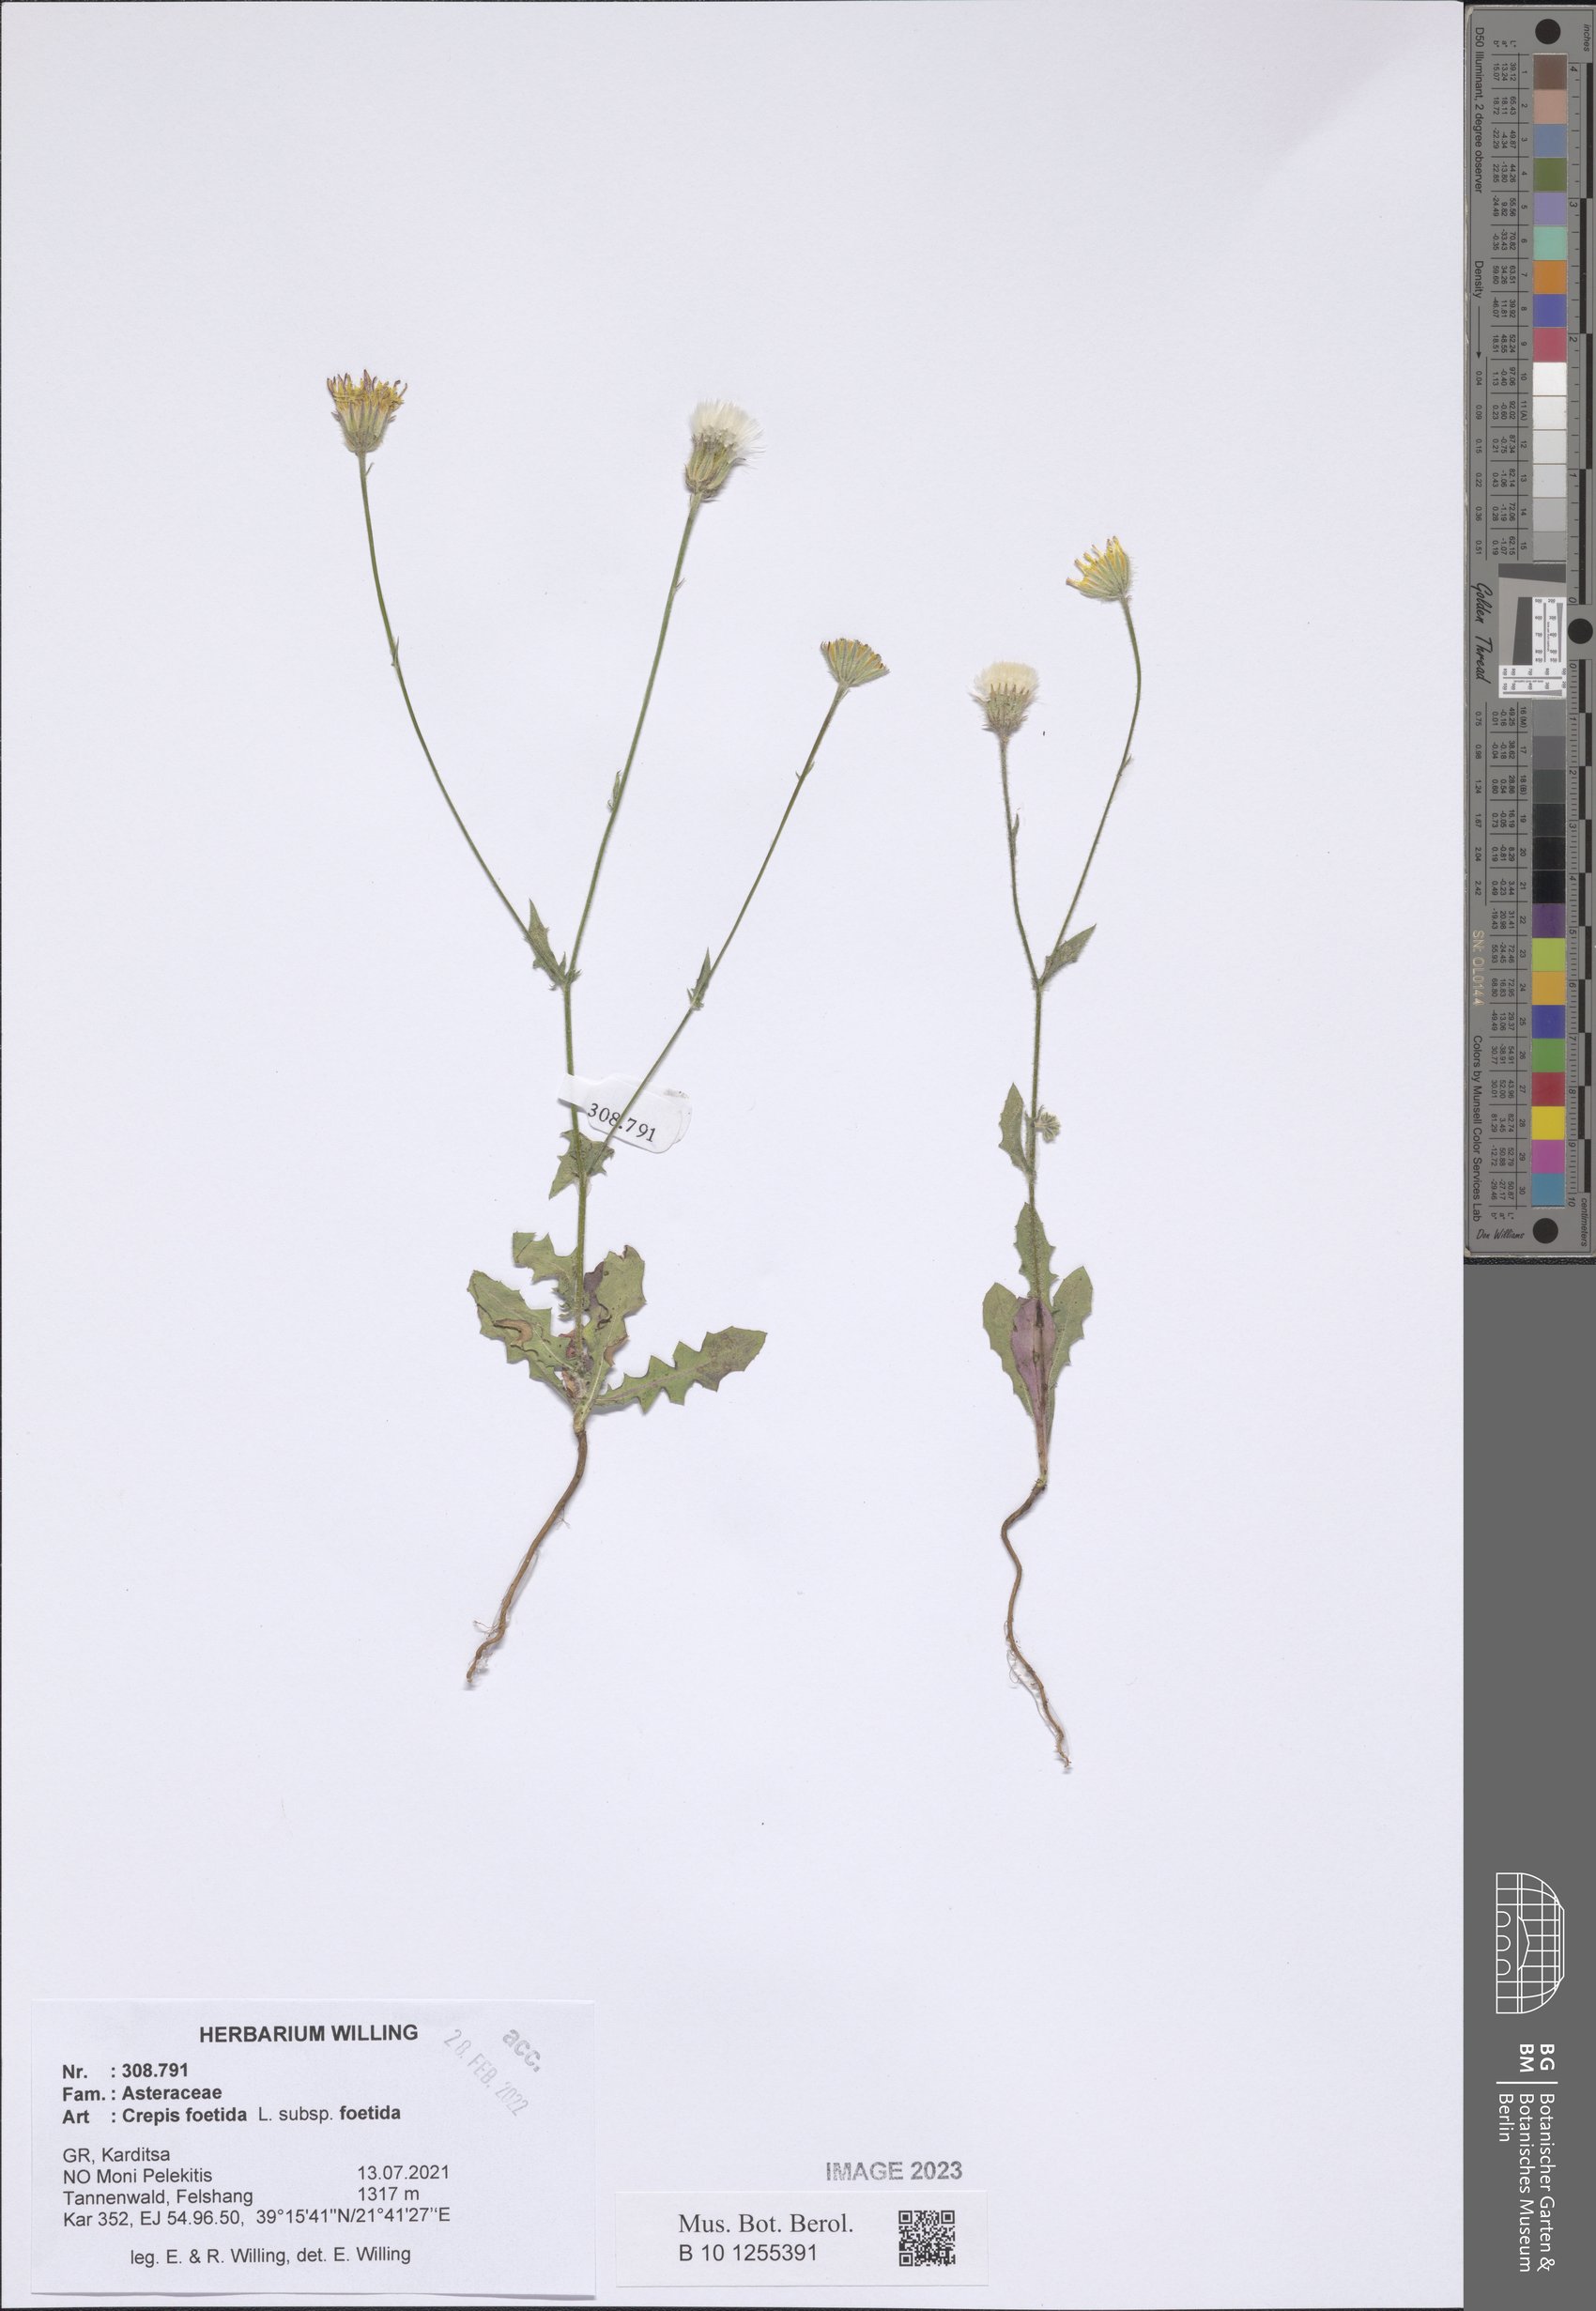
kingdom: Plantae
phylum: Tracheophyta
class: Magnoliopsida
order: Asterales
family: Asteraceae
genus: Crepis
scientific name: Crepis foetida
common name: Stinking hawk's-beard
